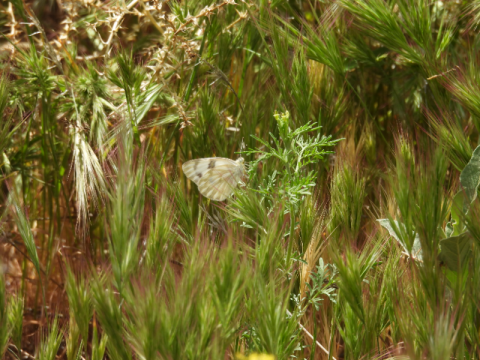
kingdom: Animalia
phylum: Arthropoda
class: Insecta
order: Lepidoptera
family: Pieridae
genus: Pontia
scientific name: Pontia protodice
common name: Checkered White
